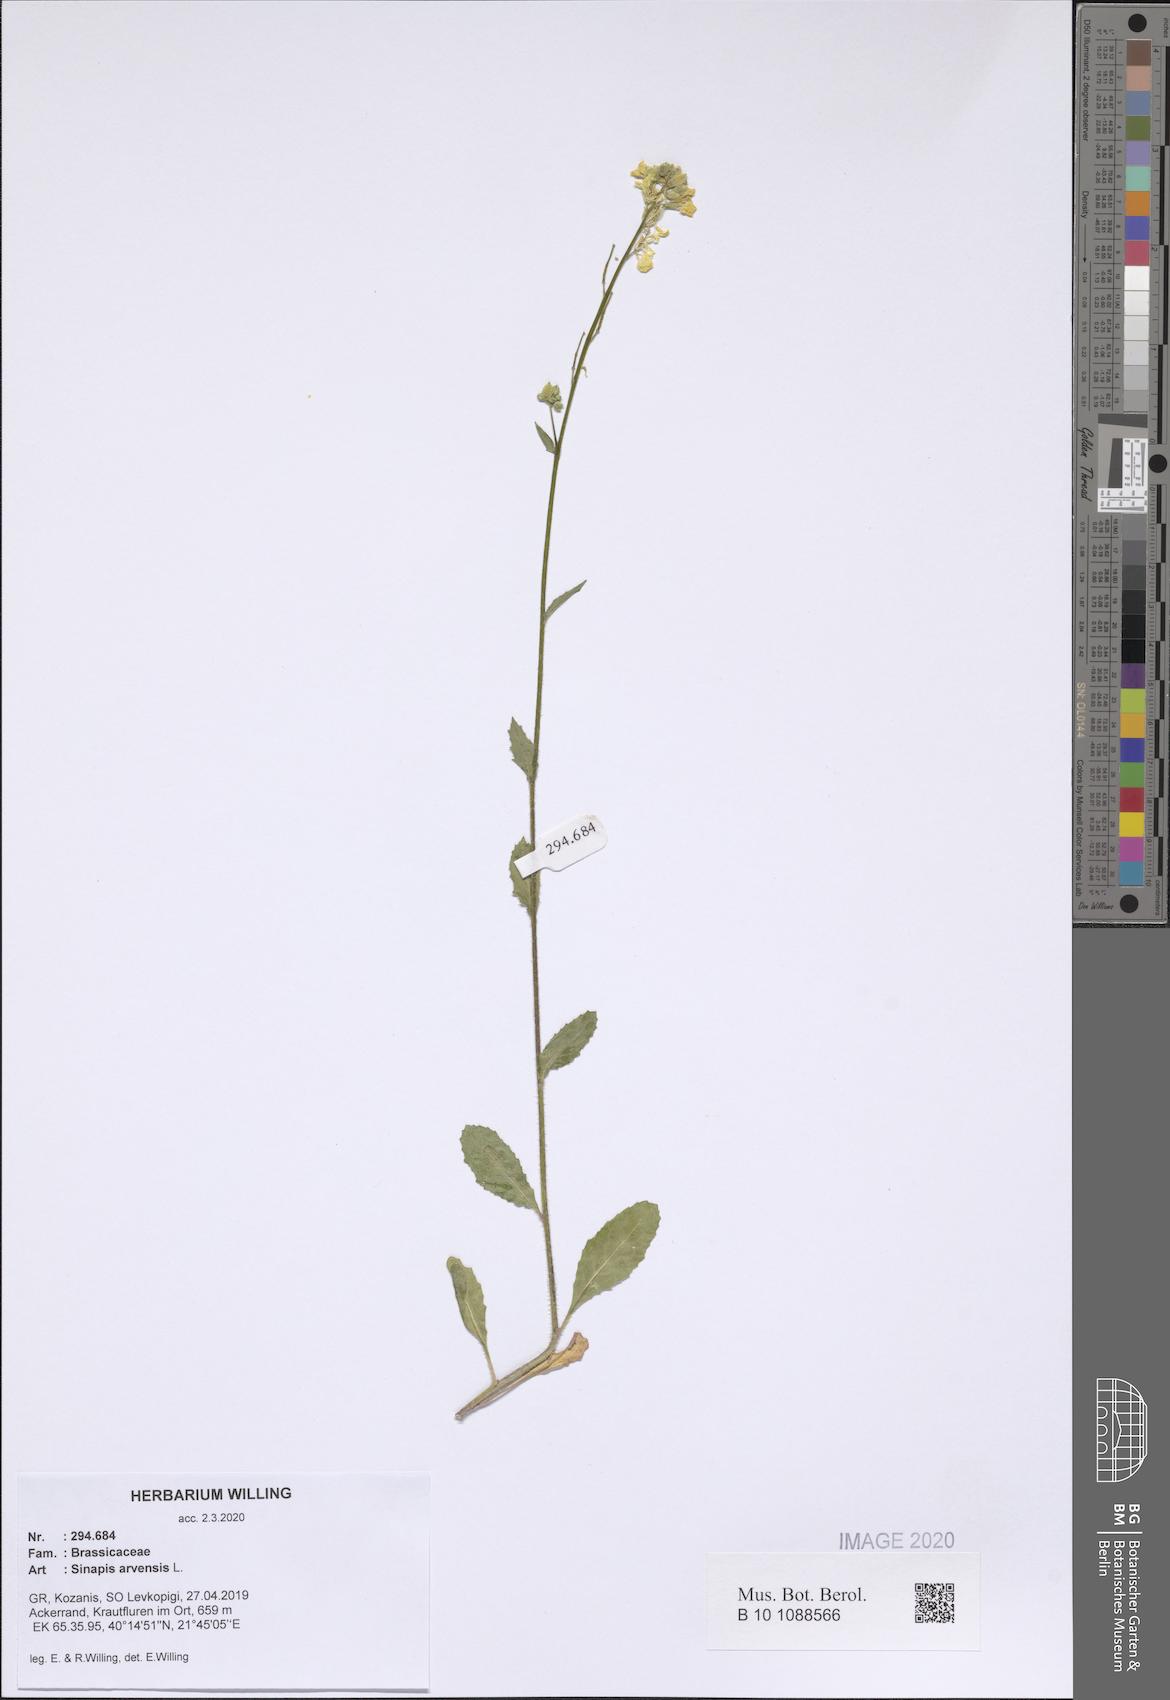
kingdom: Plantae
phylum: Tracheophyta
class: Magnoliopsida
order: Brassicales
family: Brassicaceae
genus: Sinapis
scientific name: Sinapis arvensis
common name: Charlock
